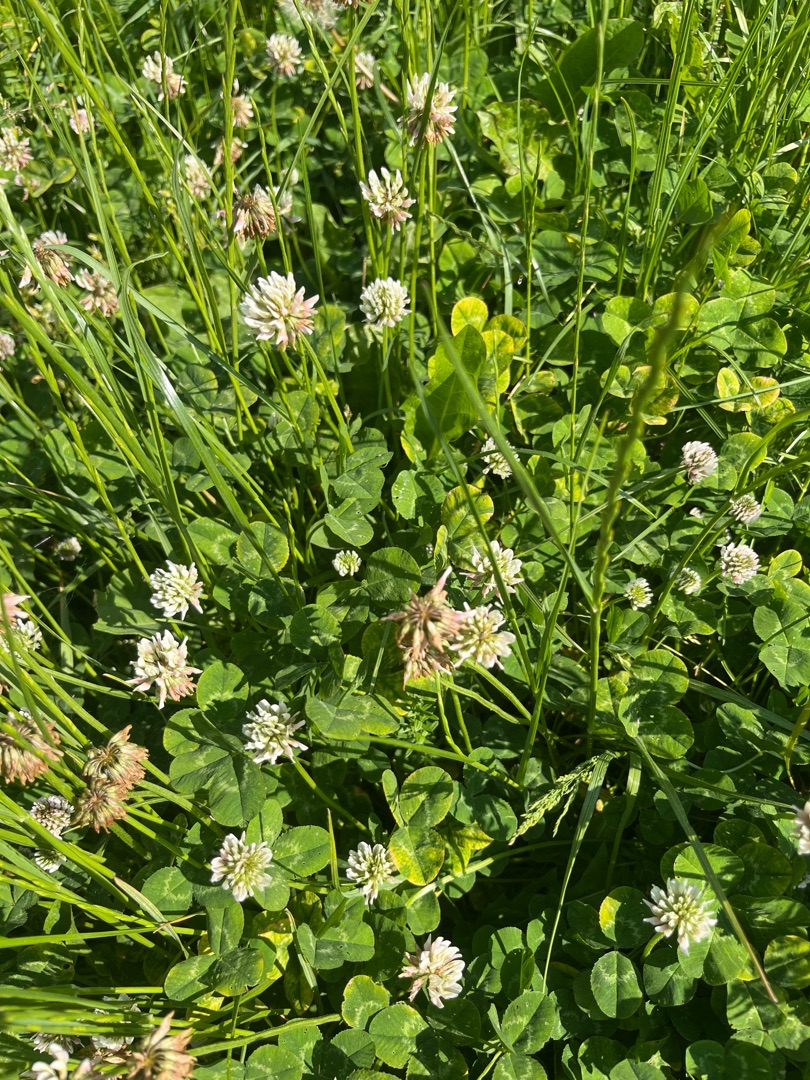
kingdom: Plantae
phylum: Tracheophyta
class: Magnoliopsida
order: Fabales
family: Fabaceae
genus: Trifolium
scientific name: Trifolium repens
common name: Hvid-kløver
